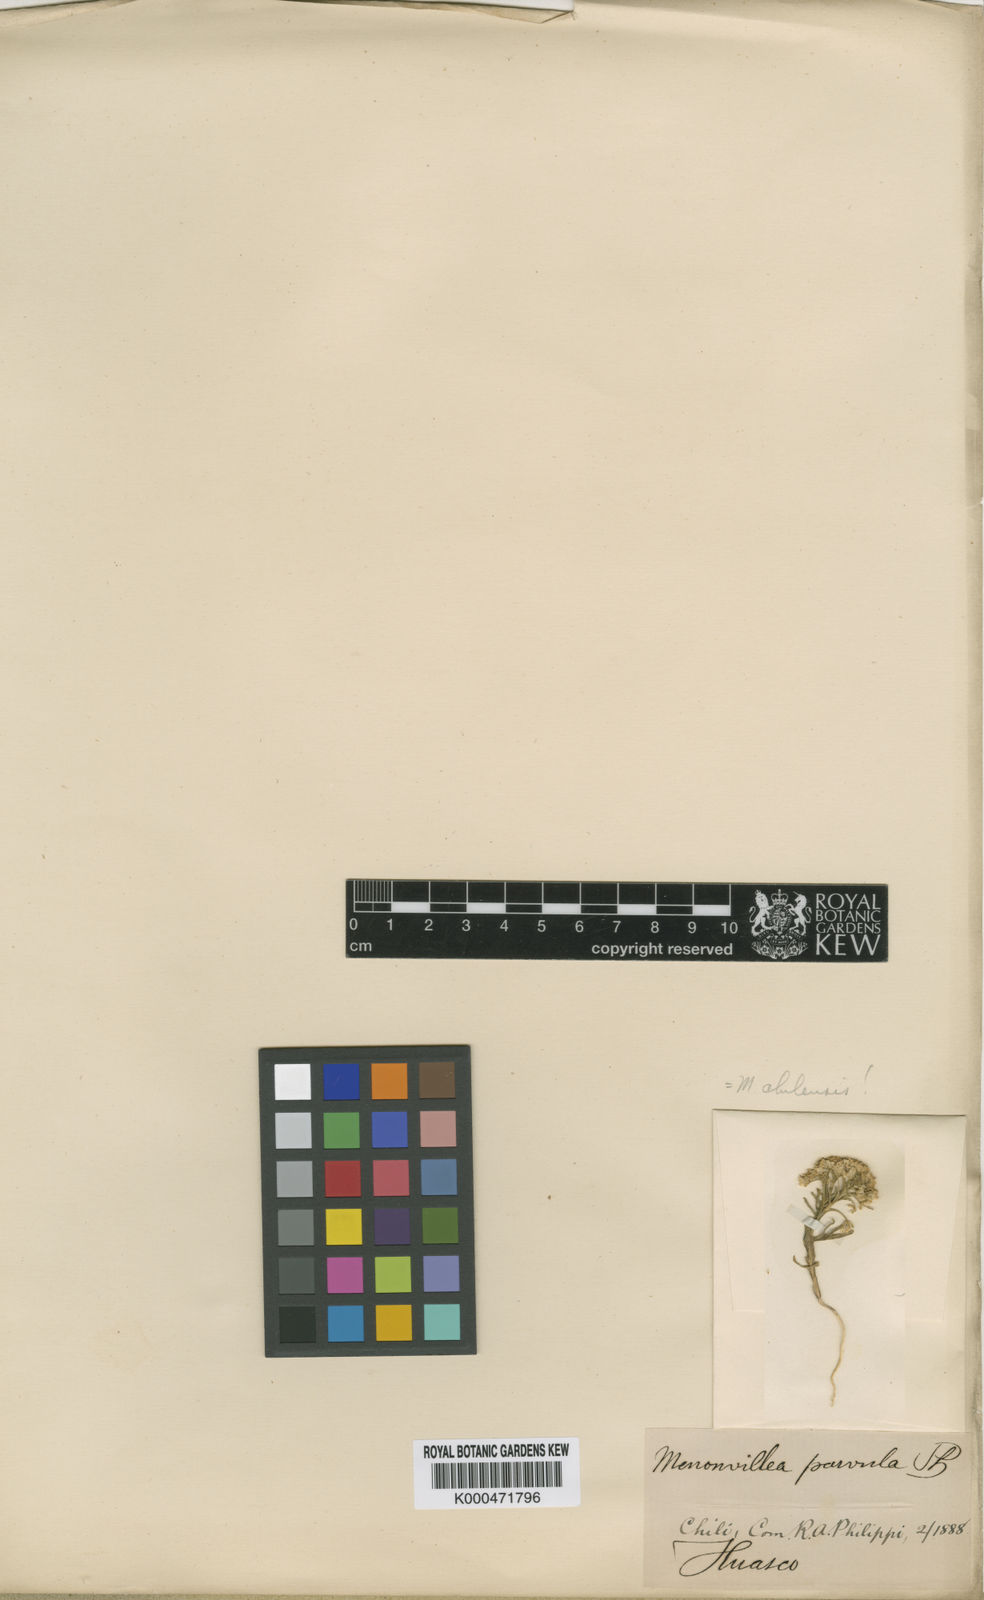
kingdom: Plantae
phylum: Tracheophyta
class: Magnoliopsida
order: Brassicales
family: Brassicaceae
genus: Menonvillea
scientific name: Menonvillea chilensis
